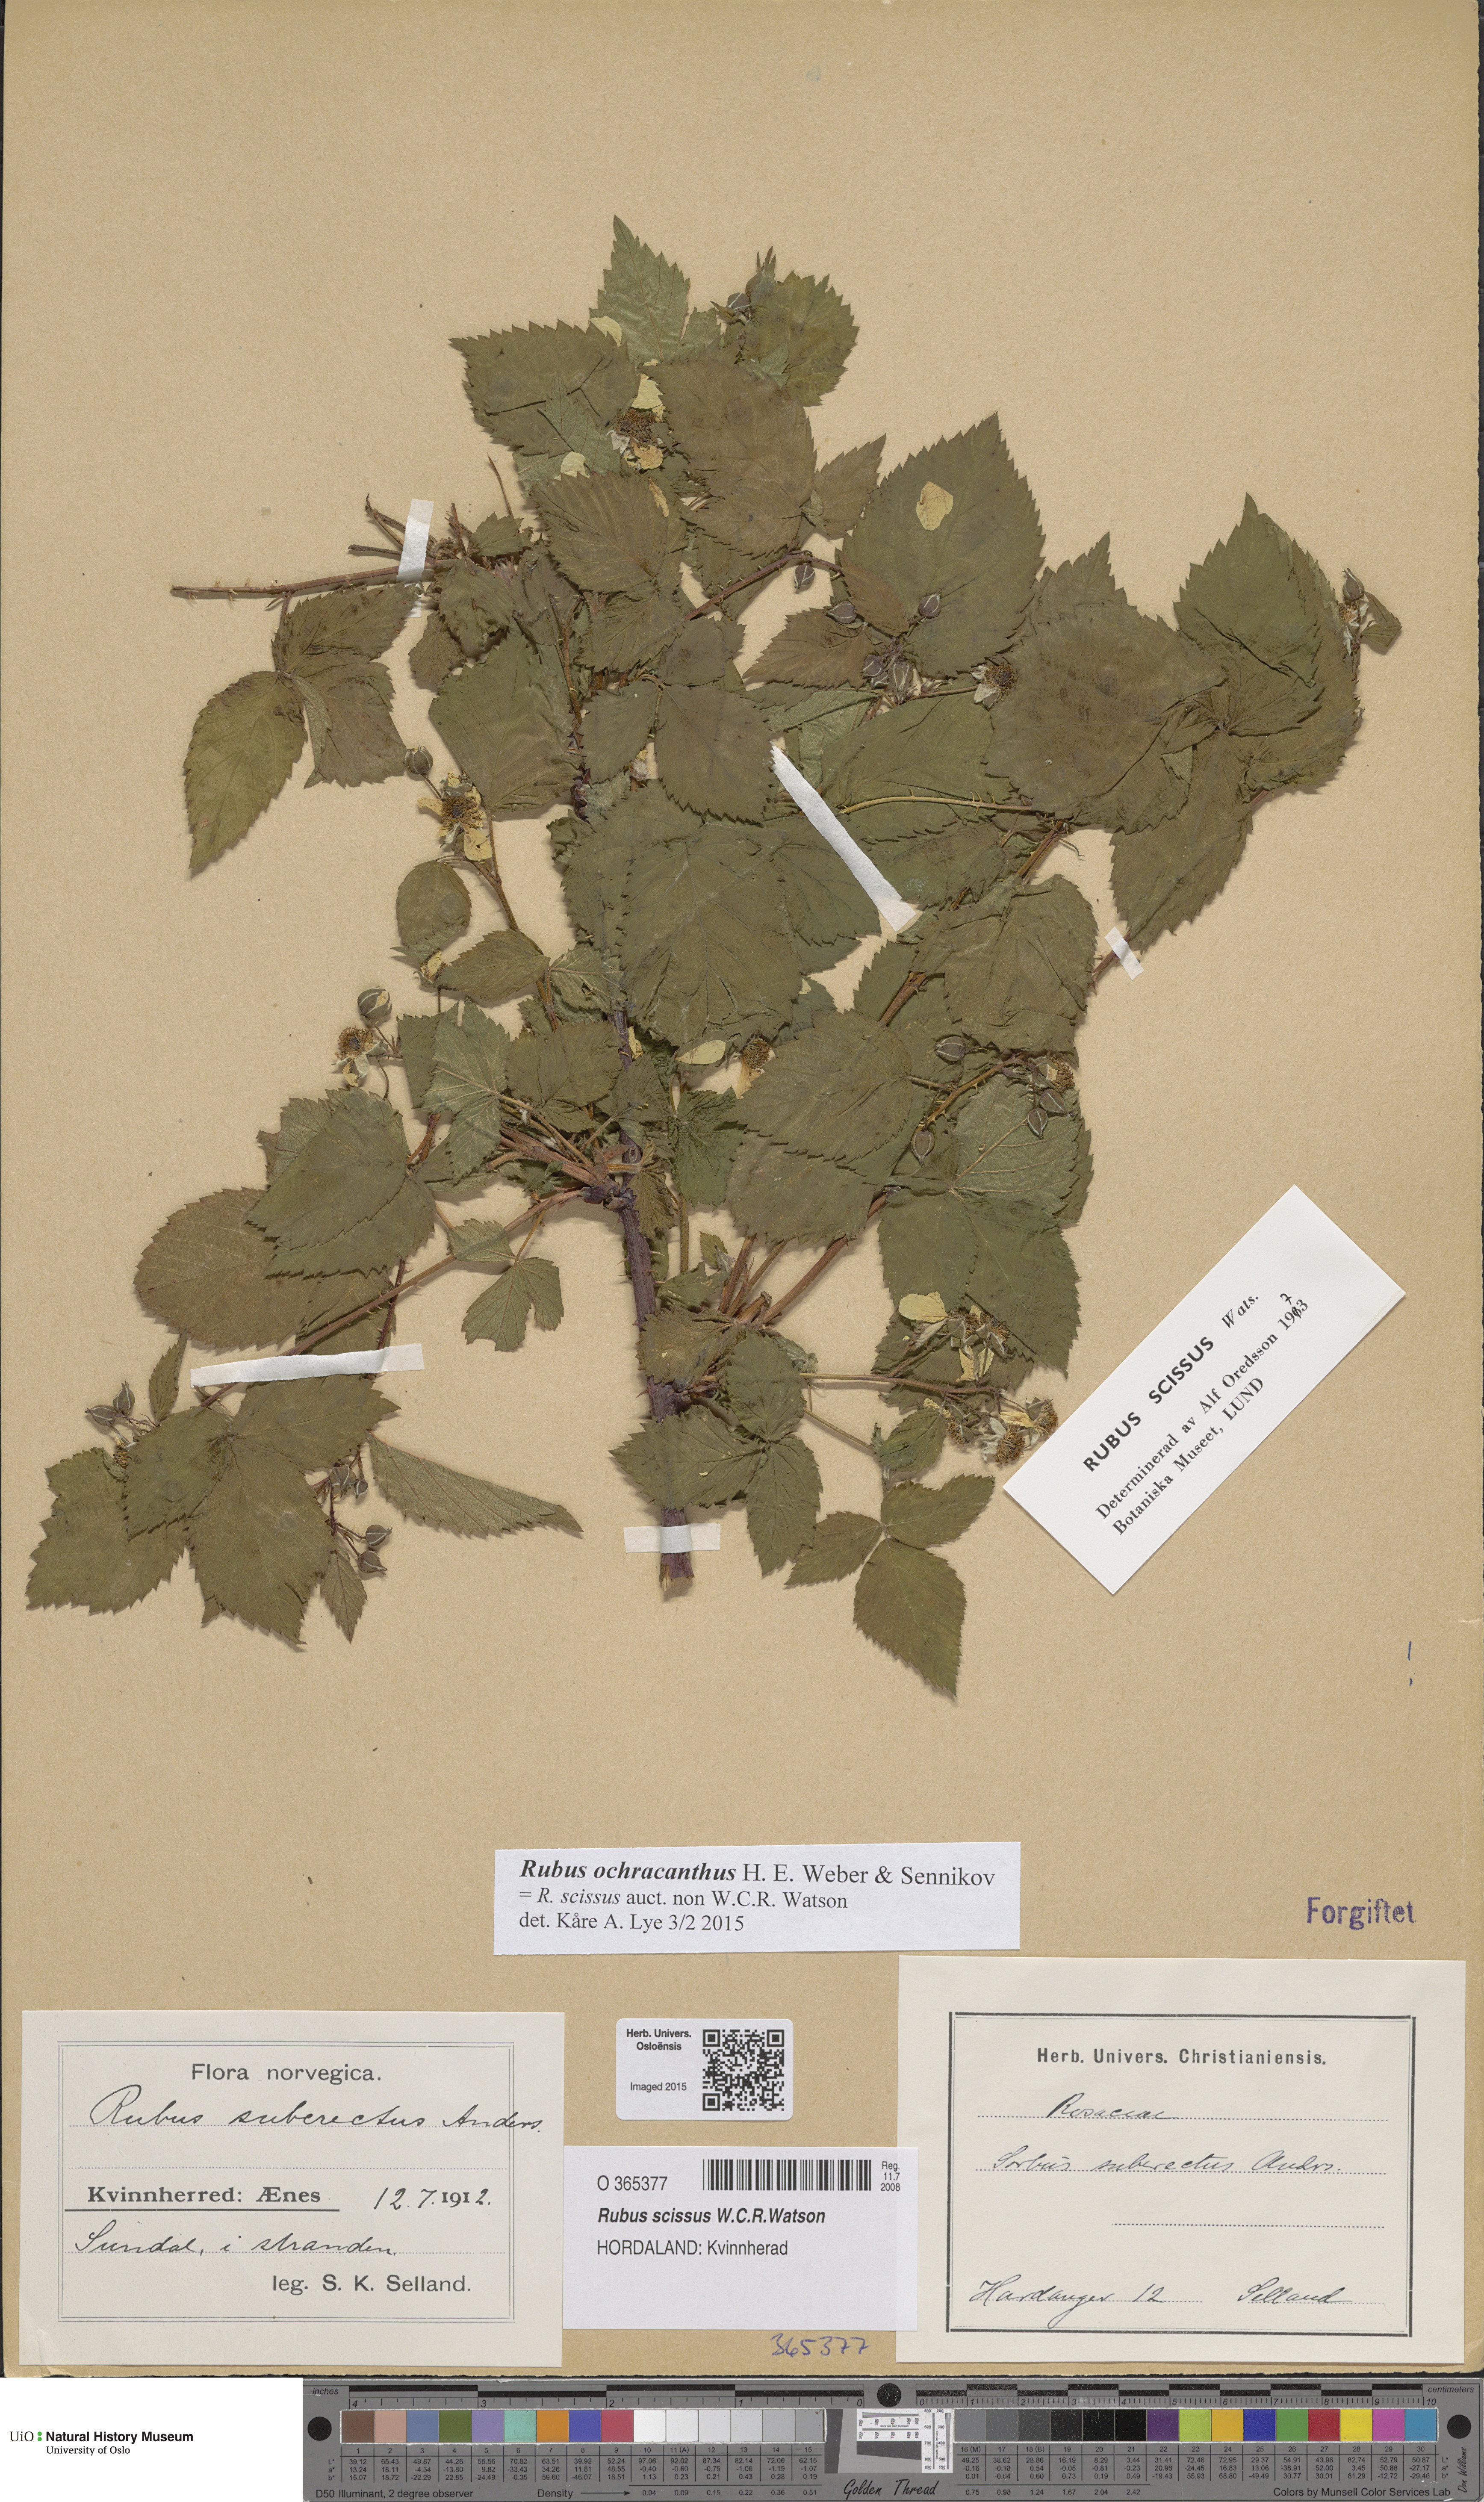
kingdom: Plantae
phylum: Tracheophyta
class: Magnoliopsida
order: Rosales
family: Rosaceae
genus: Rubus
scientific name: Rubus scissus
